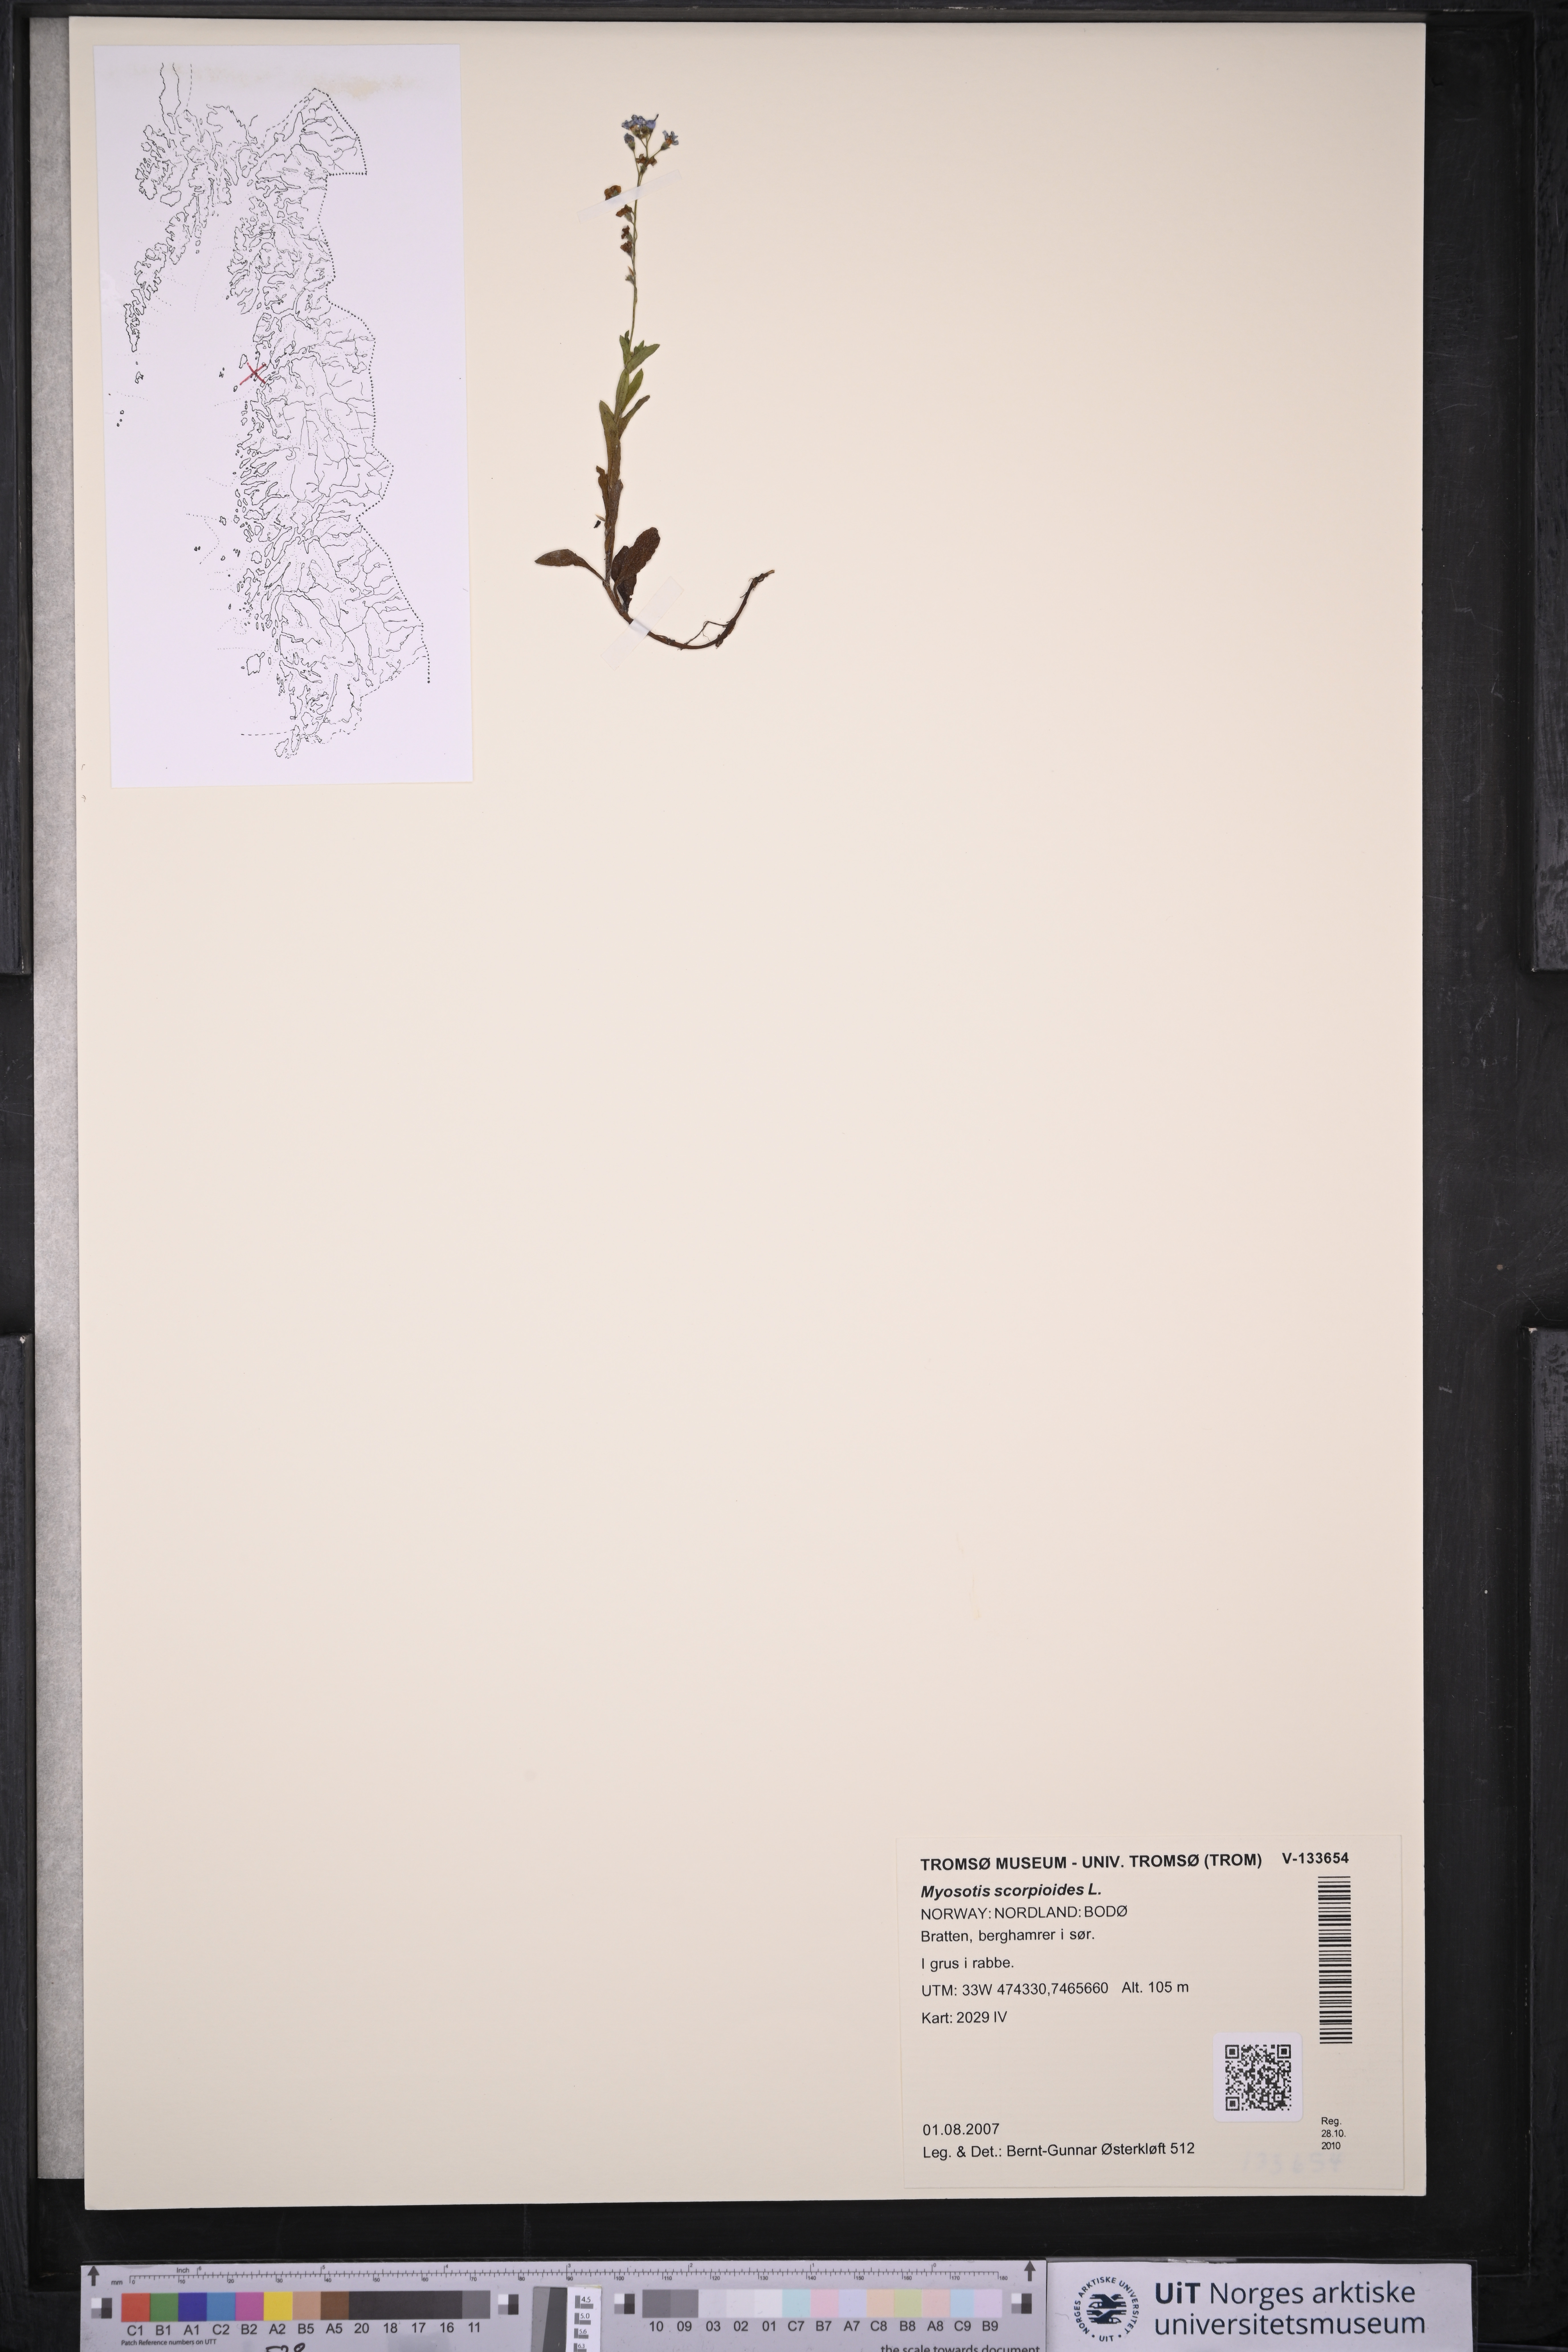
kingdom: Plantae
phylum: Tracheophyta
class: Magnoliopsida
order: Boraginales
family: Boraginaceae
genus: Myosotis
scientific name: Myosotis scorpioides
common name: Water forget-me-not
